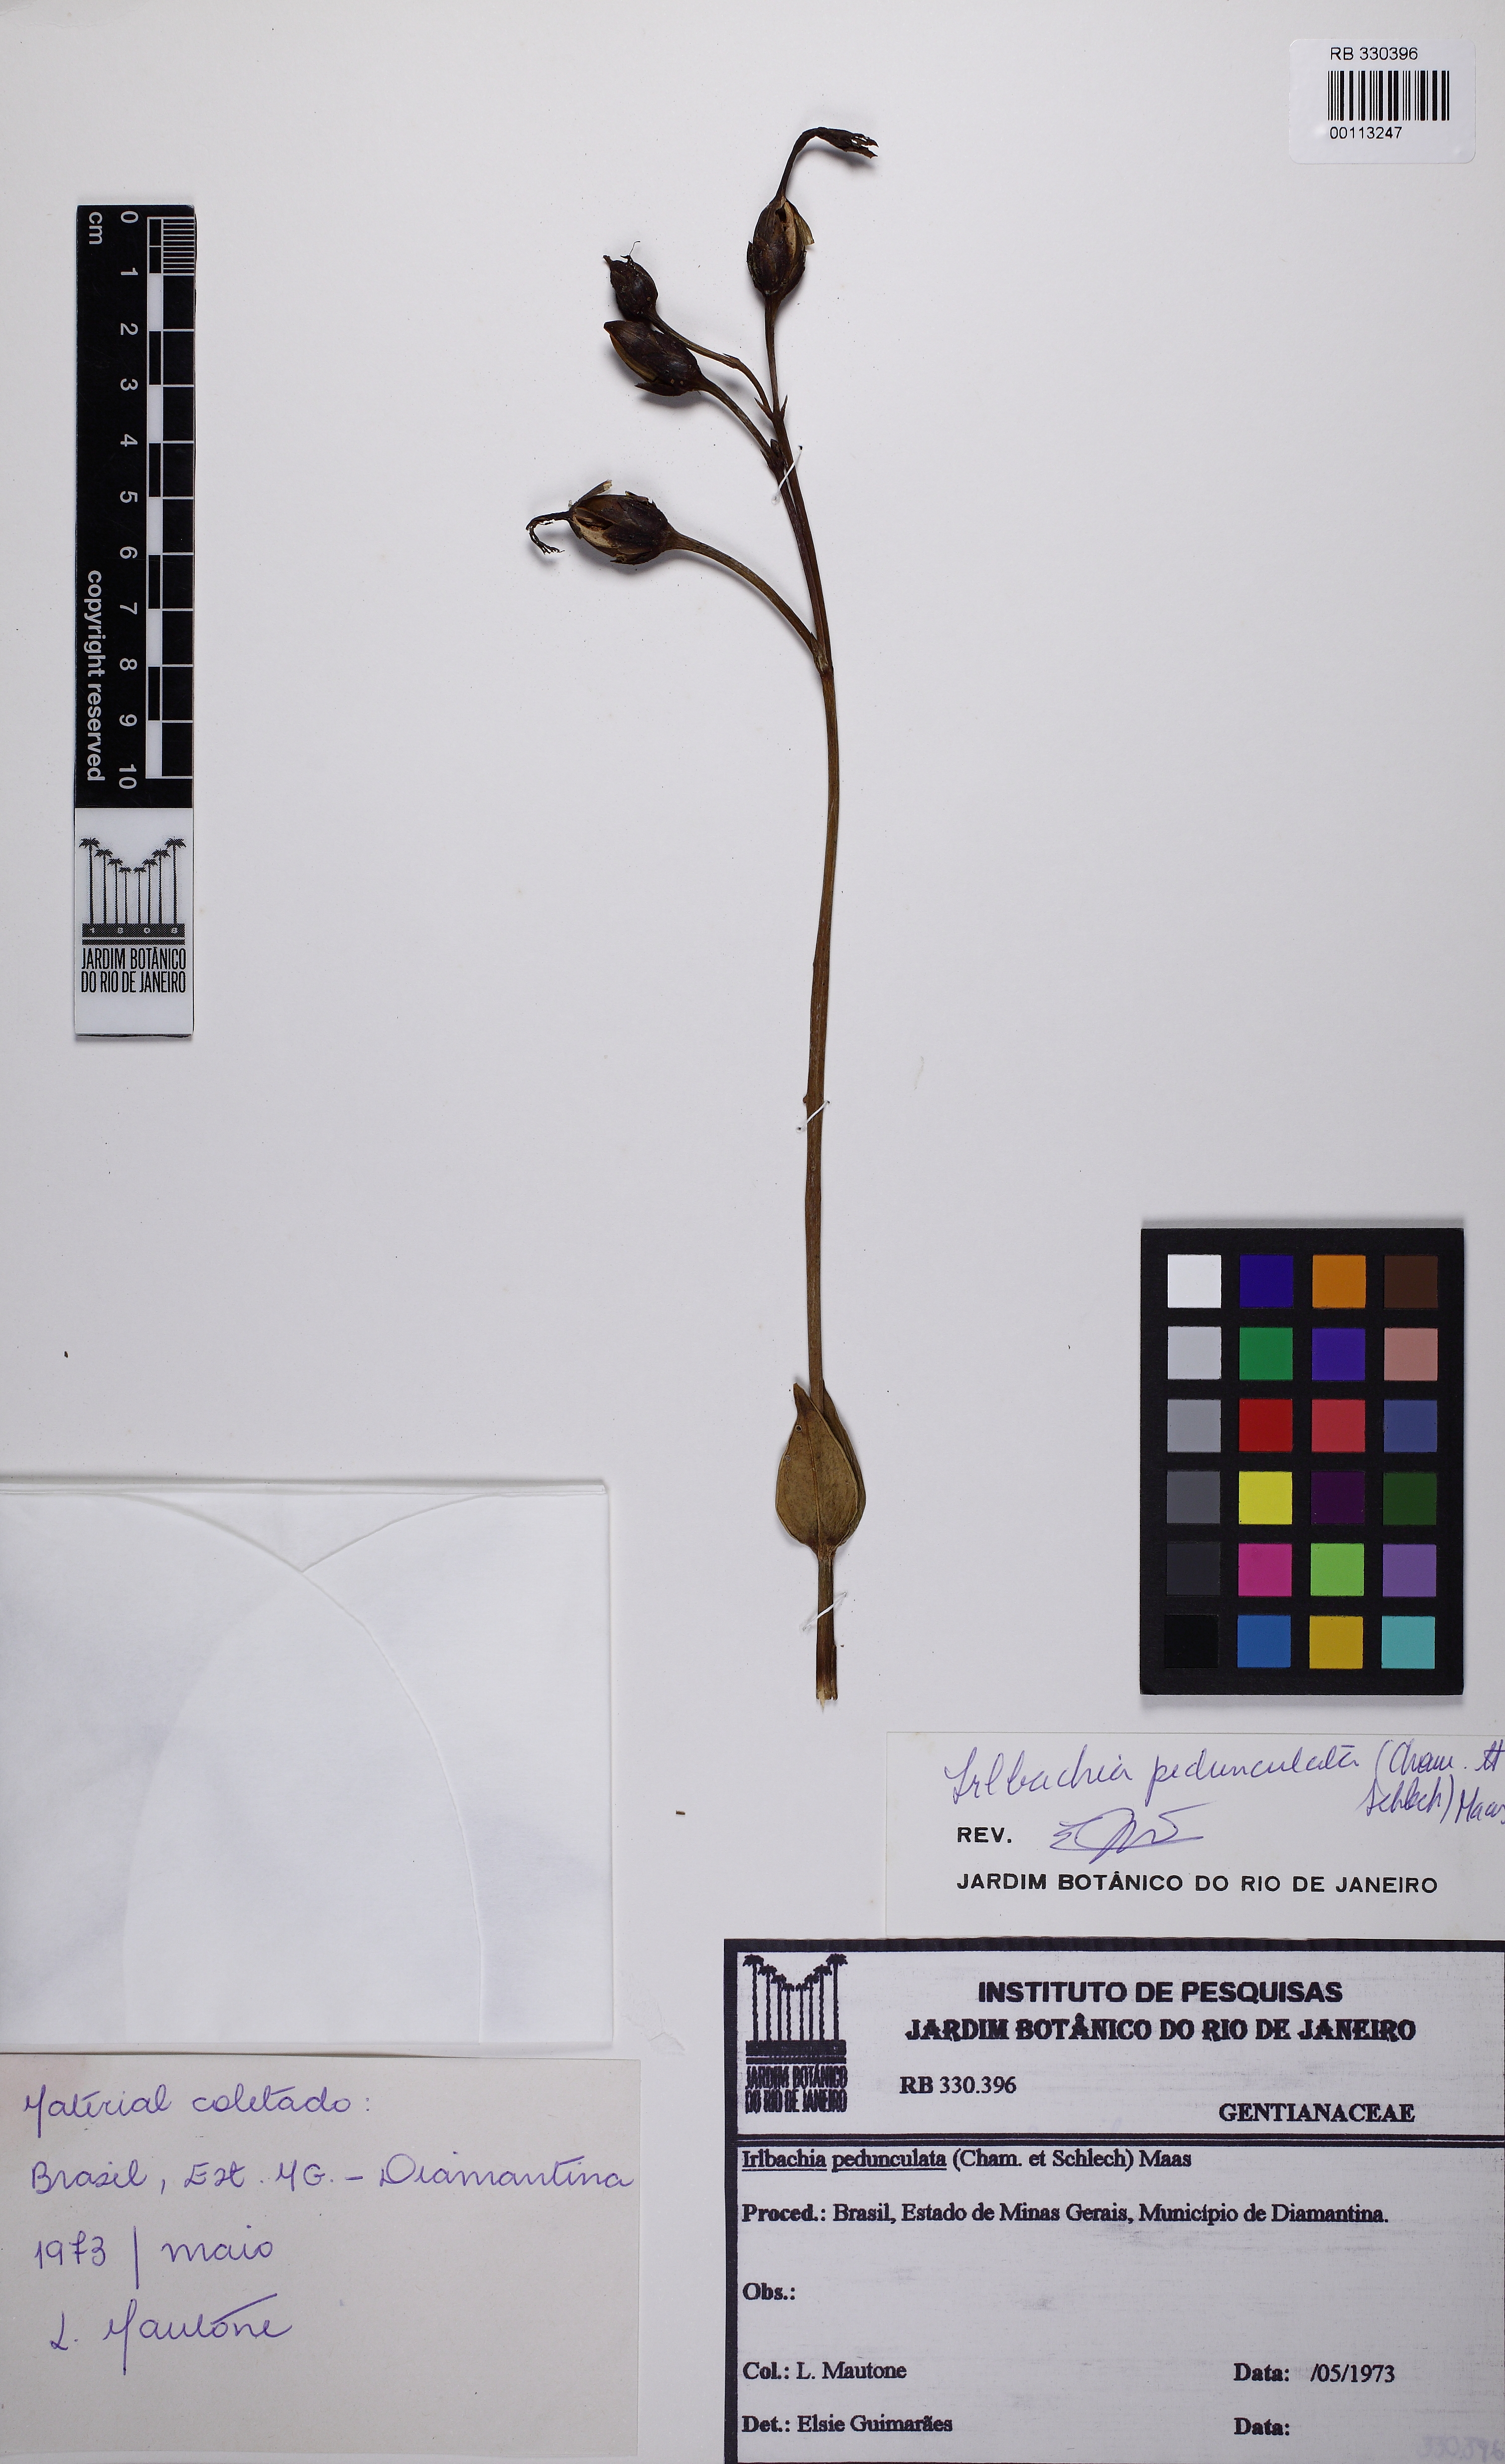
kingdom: Plantae
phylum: Tracheophyta
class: Magnoliopsida
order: Gentianales
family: Gentianaceae
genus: Calolisianthus
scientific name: Calolisianthus pedunculatus
